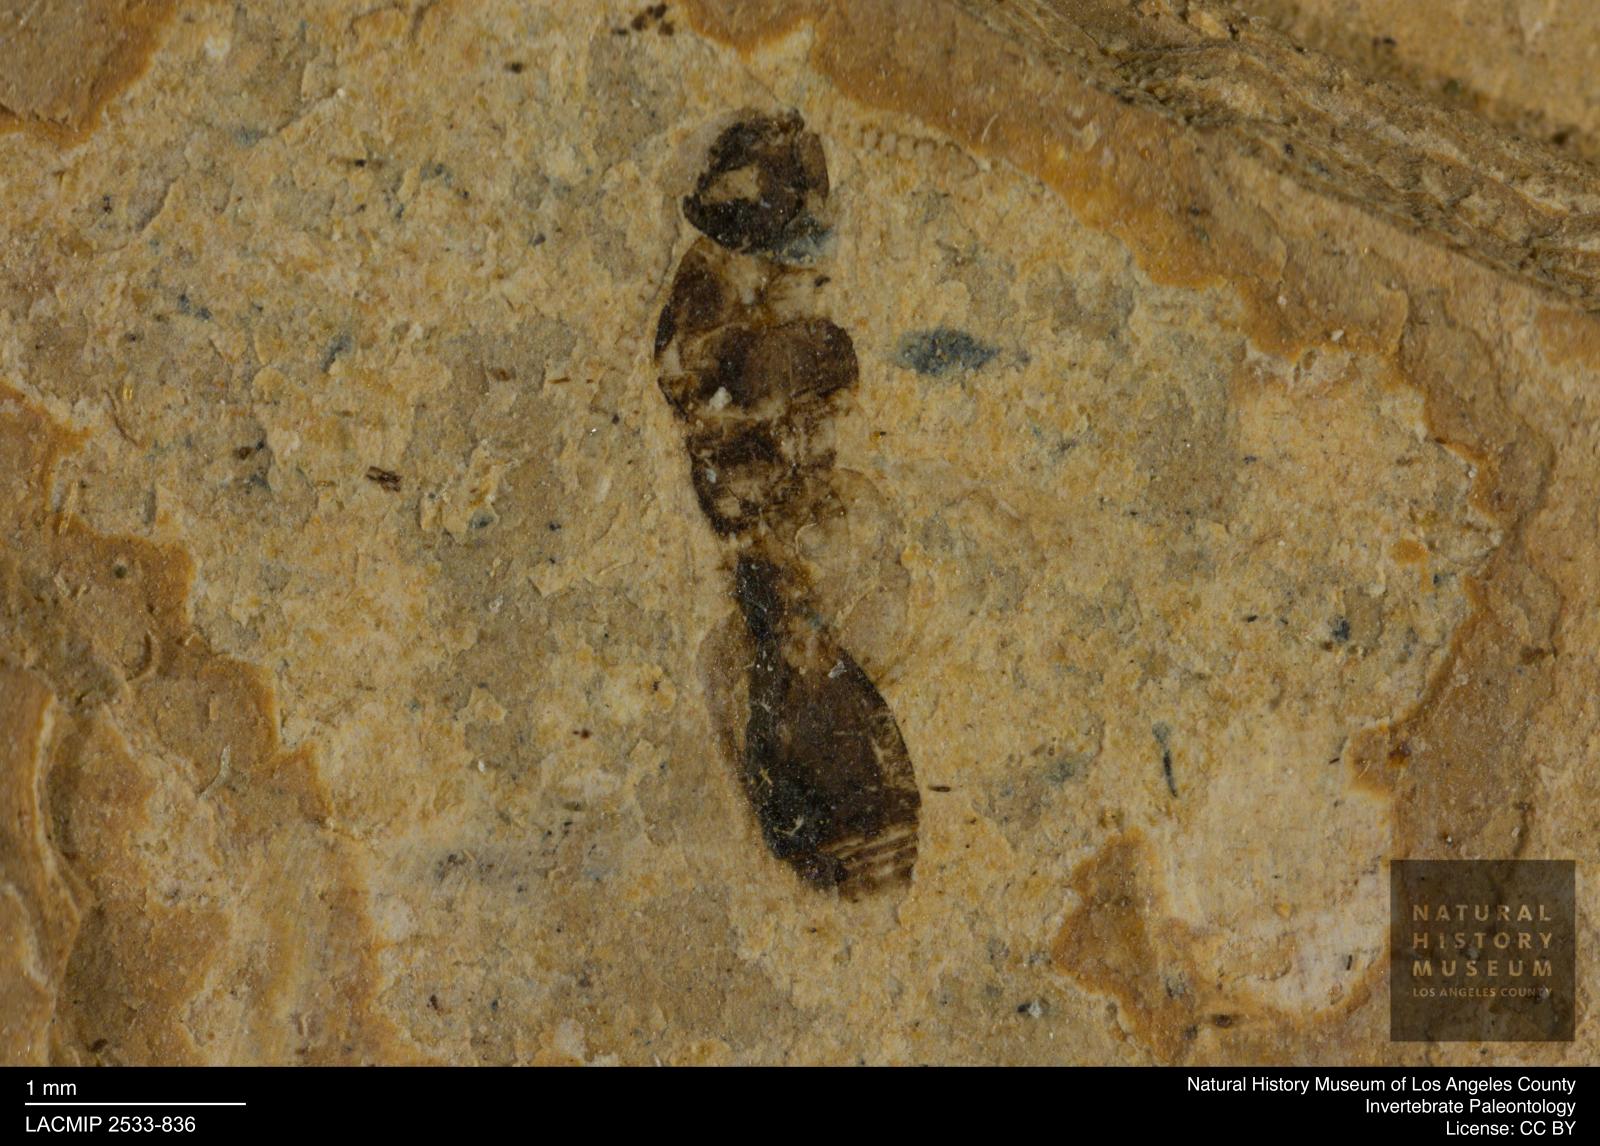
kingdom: Animalia
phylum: Arthropoda
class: Insecta
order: Hymenoptera
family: Diapriidae
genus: Psilomma
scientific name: Psilomma pulchellus
